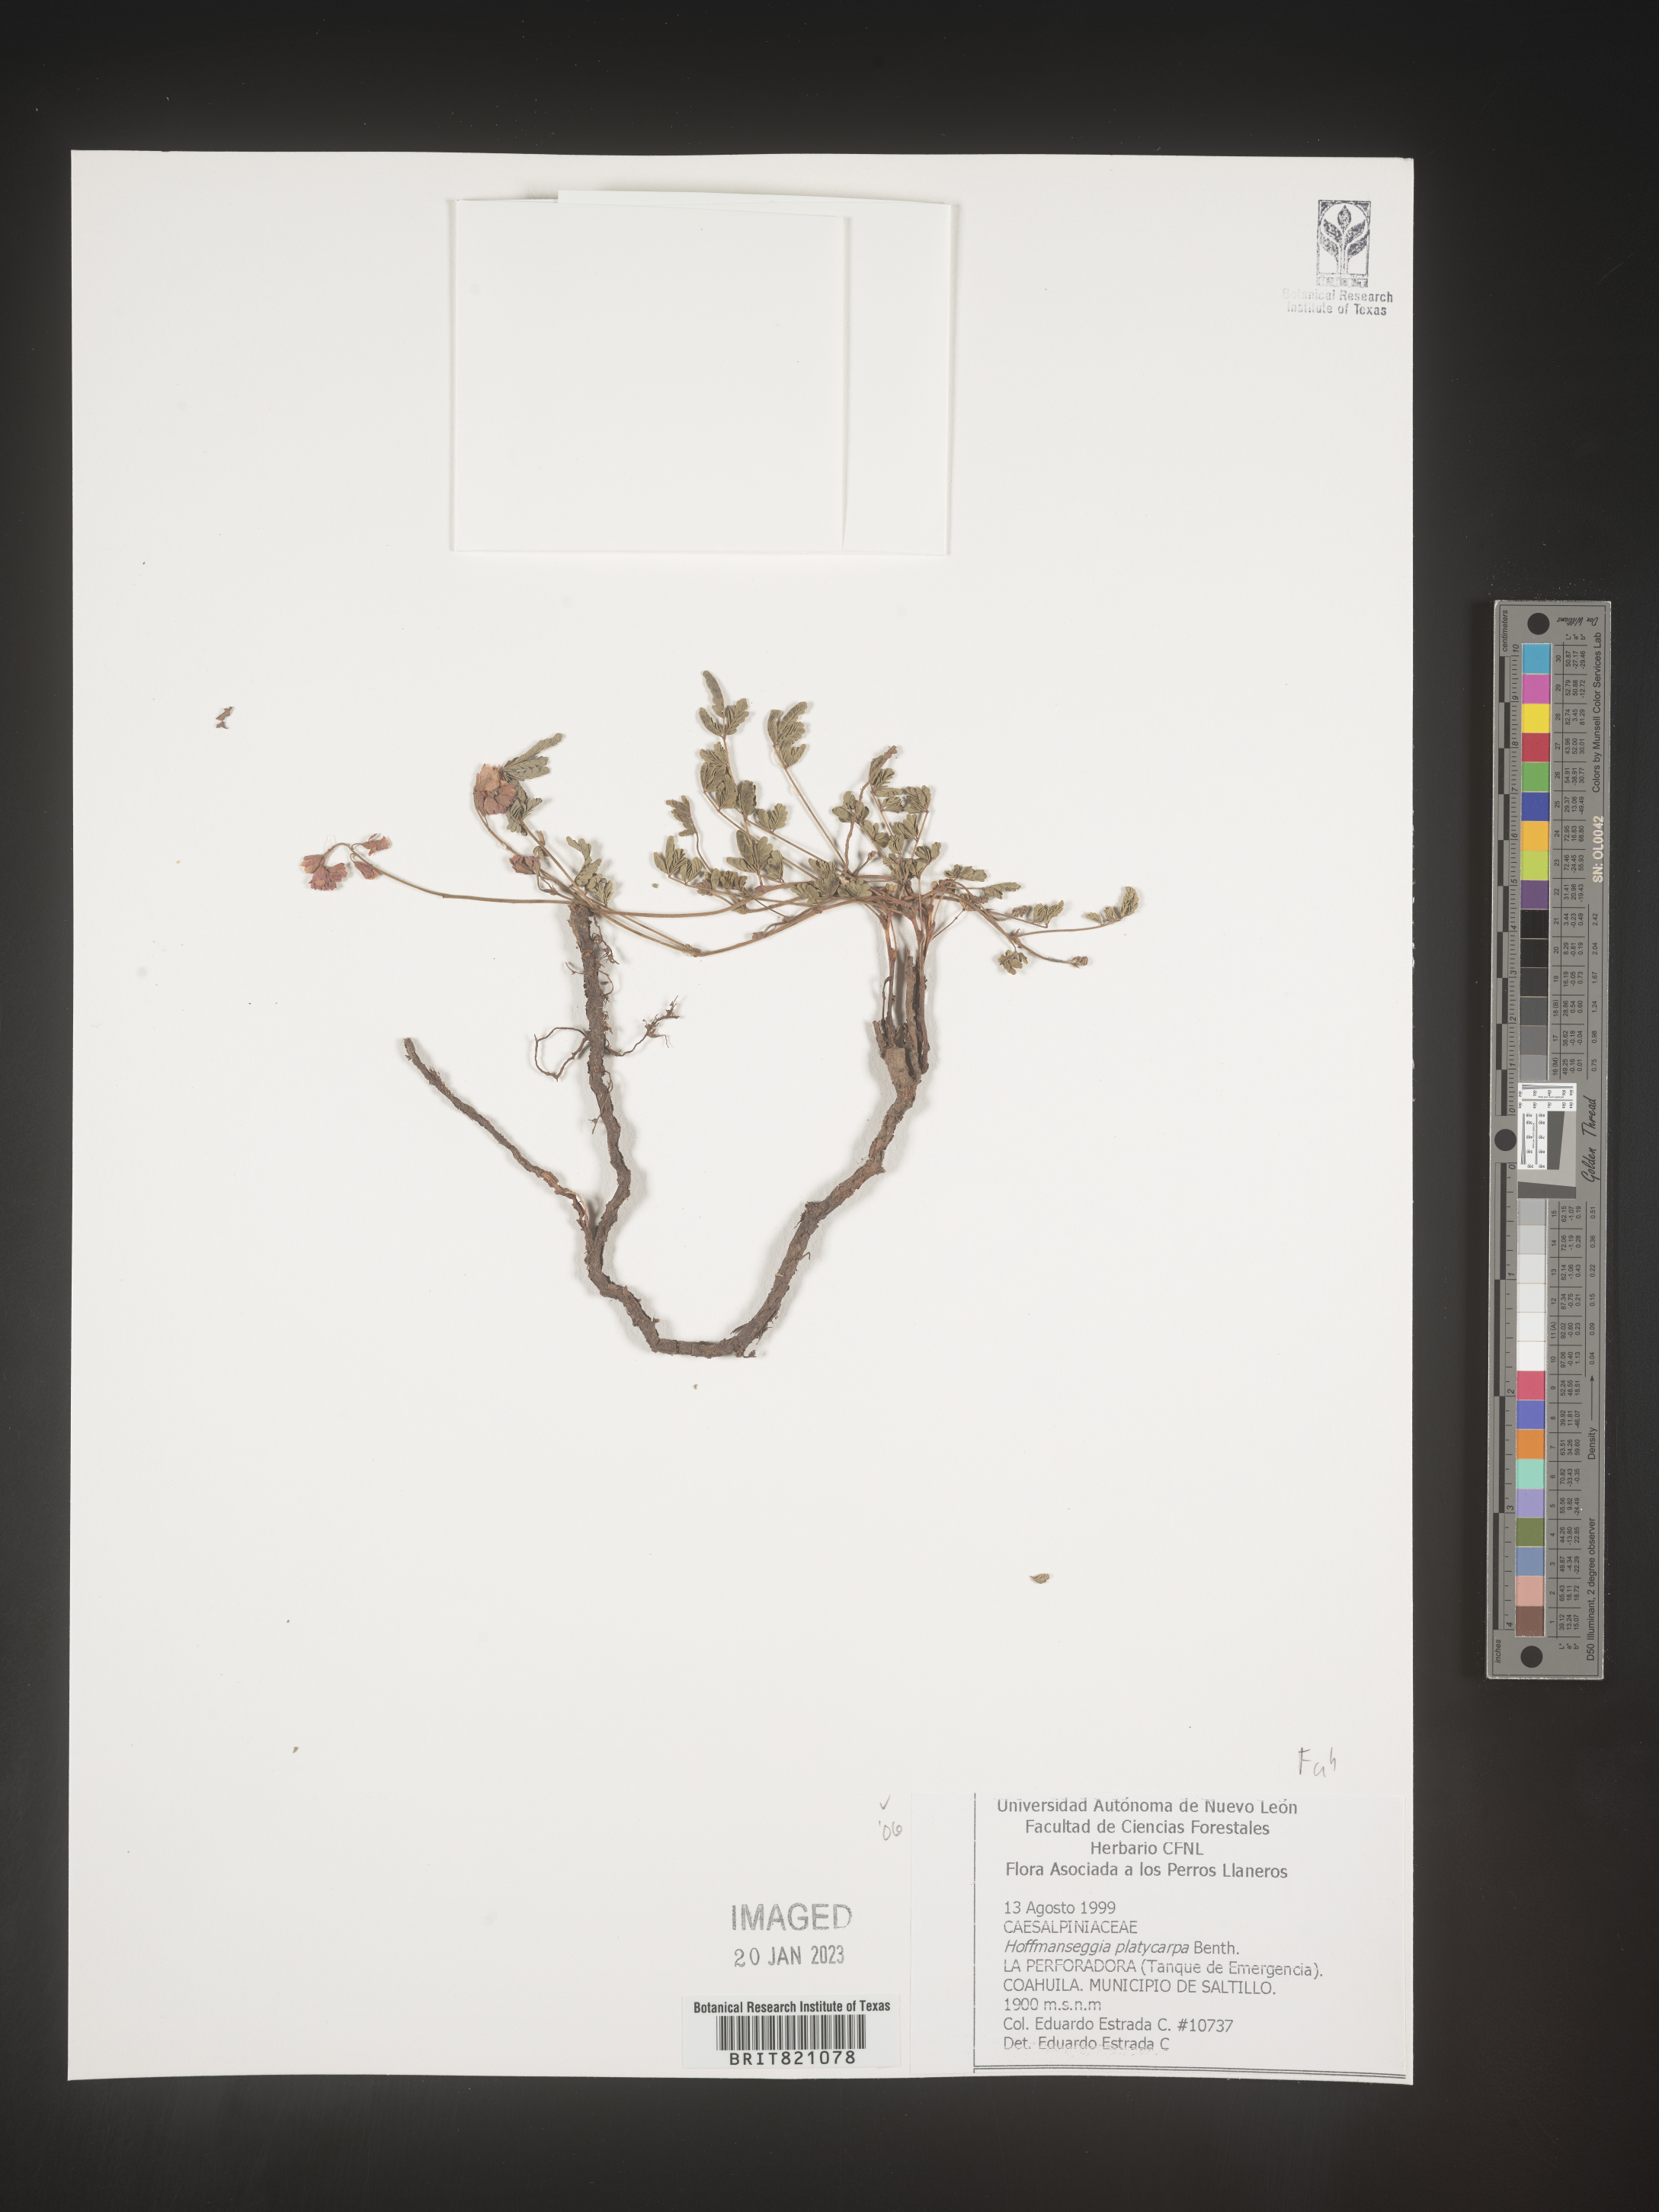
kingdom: Plantae
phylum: Tracheophyta
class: Magnoliopsida
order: Fabales
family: Fabaceae
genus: Hoffmannseggia
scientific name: Hoffmannseggia
